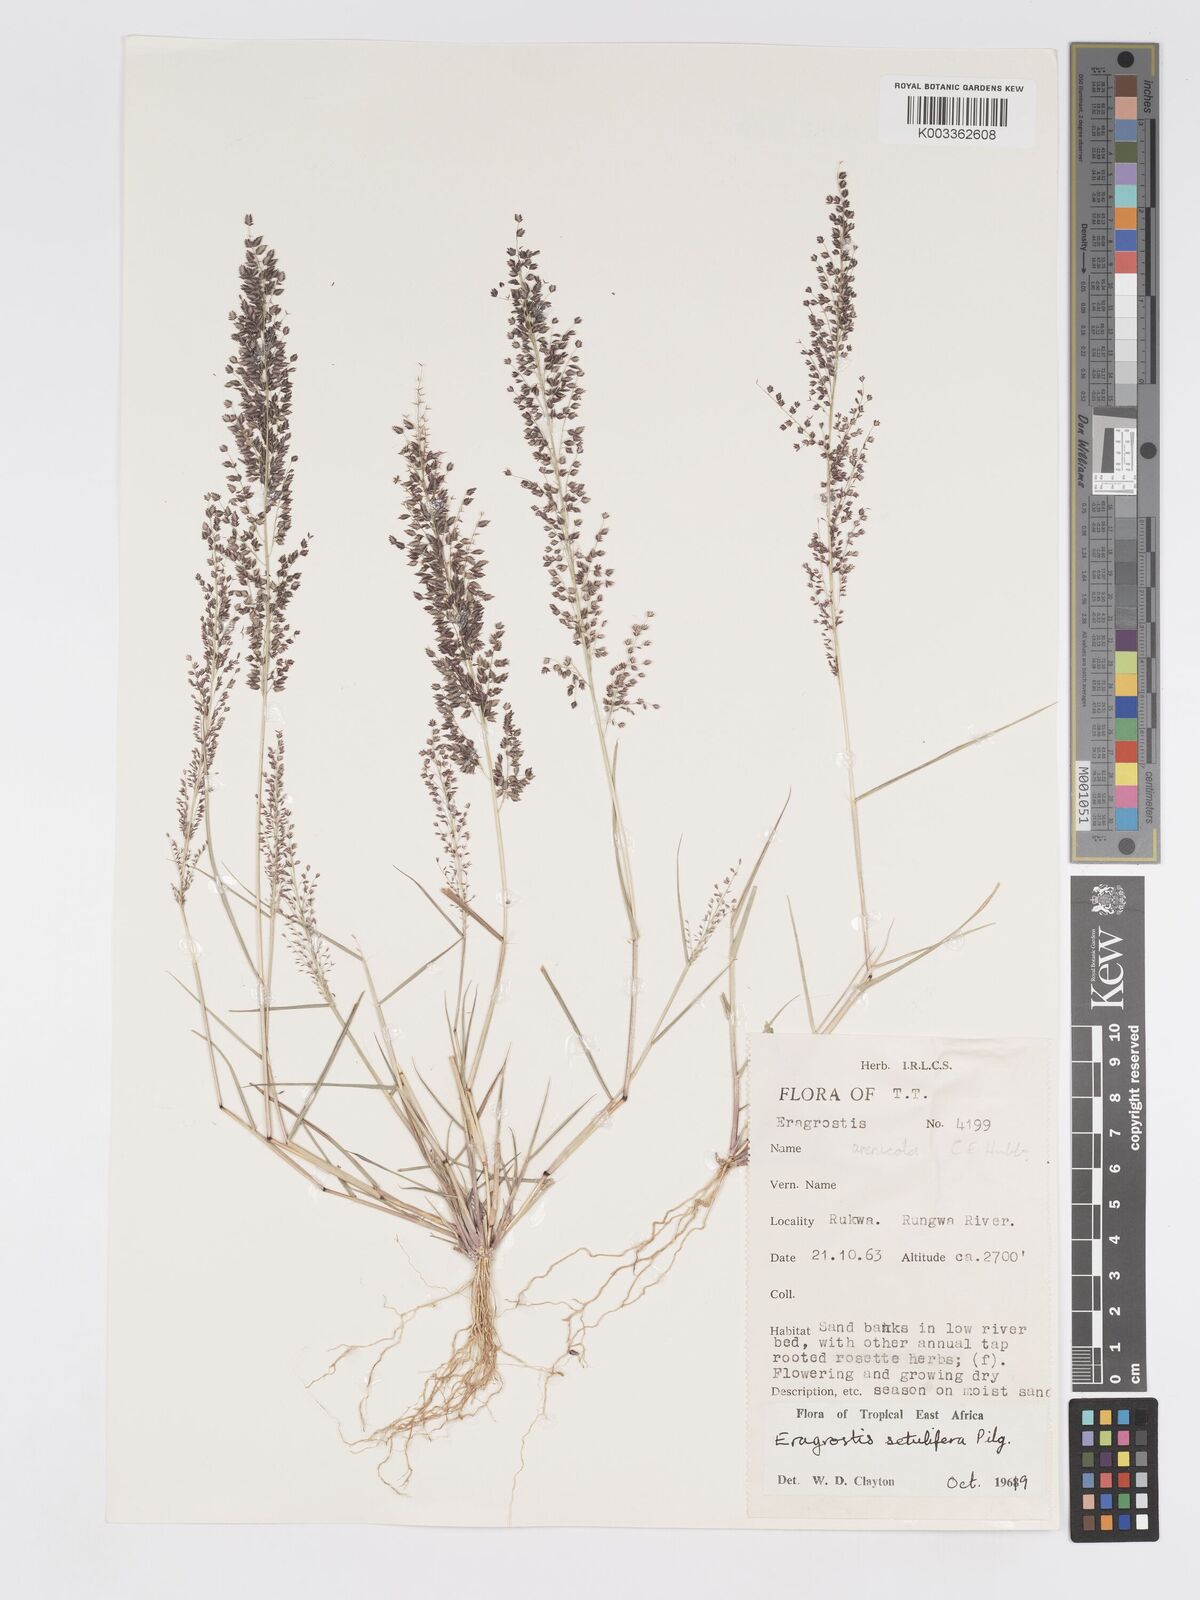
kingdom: Plantae
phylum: Tracheophyta
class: Liliopsida
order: Poales
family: Poaceae
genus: Eragrostis
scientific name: Eragrostis setulifera
